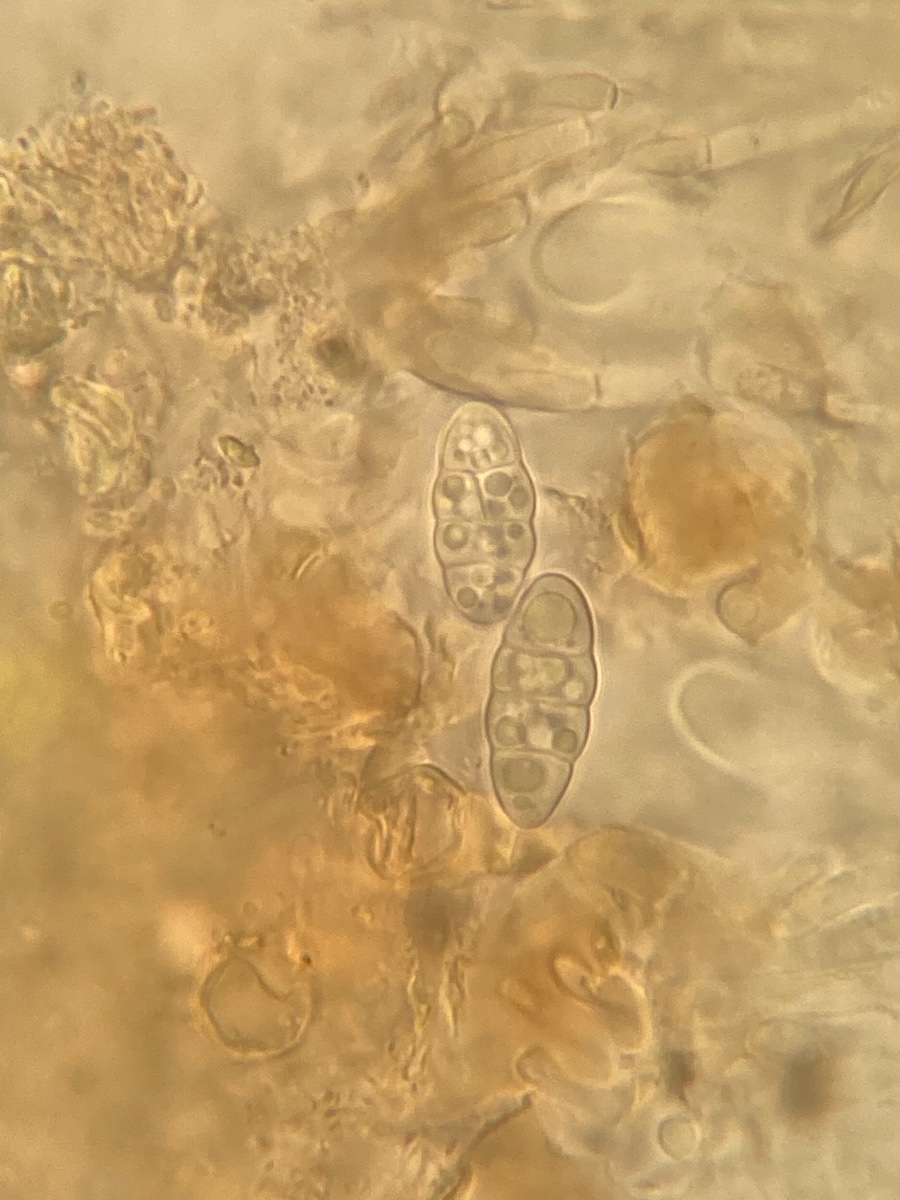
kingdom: Fungi
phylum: Ascomycota
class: Lecanoromycetes
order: Peltigerales
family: Collemataceae
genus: Enchylium
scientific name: Enchylium tenax
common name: tyk bævrelav
